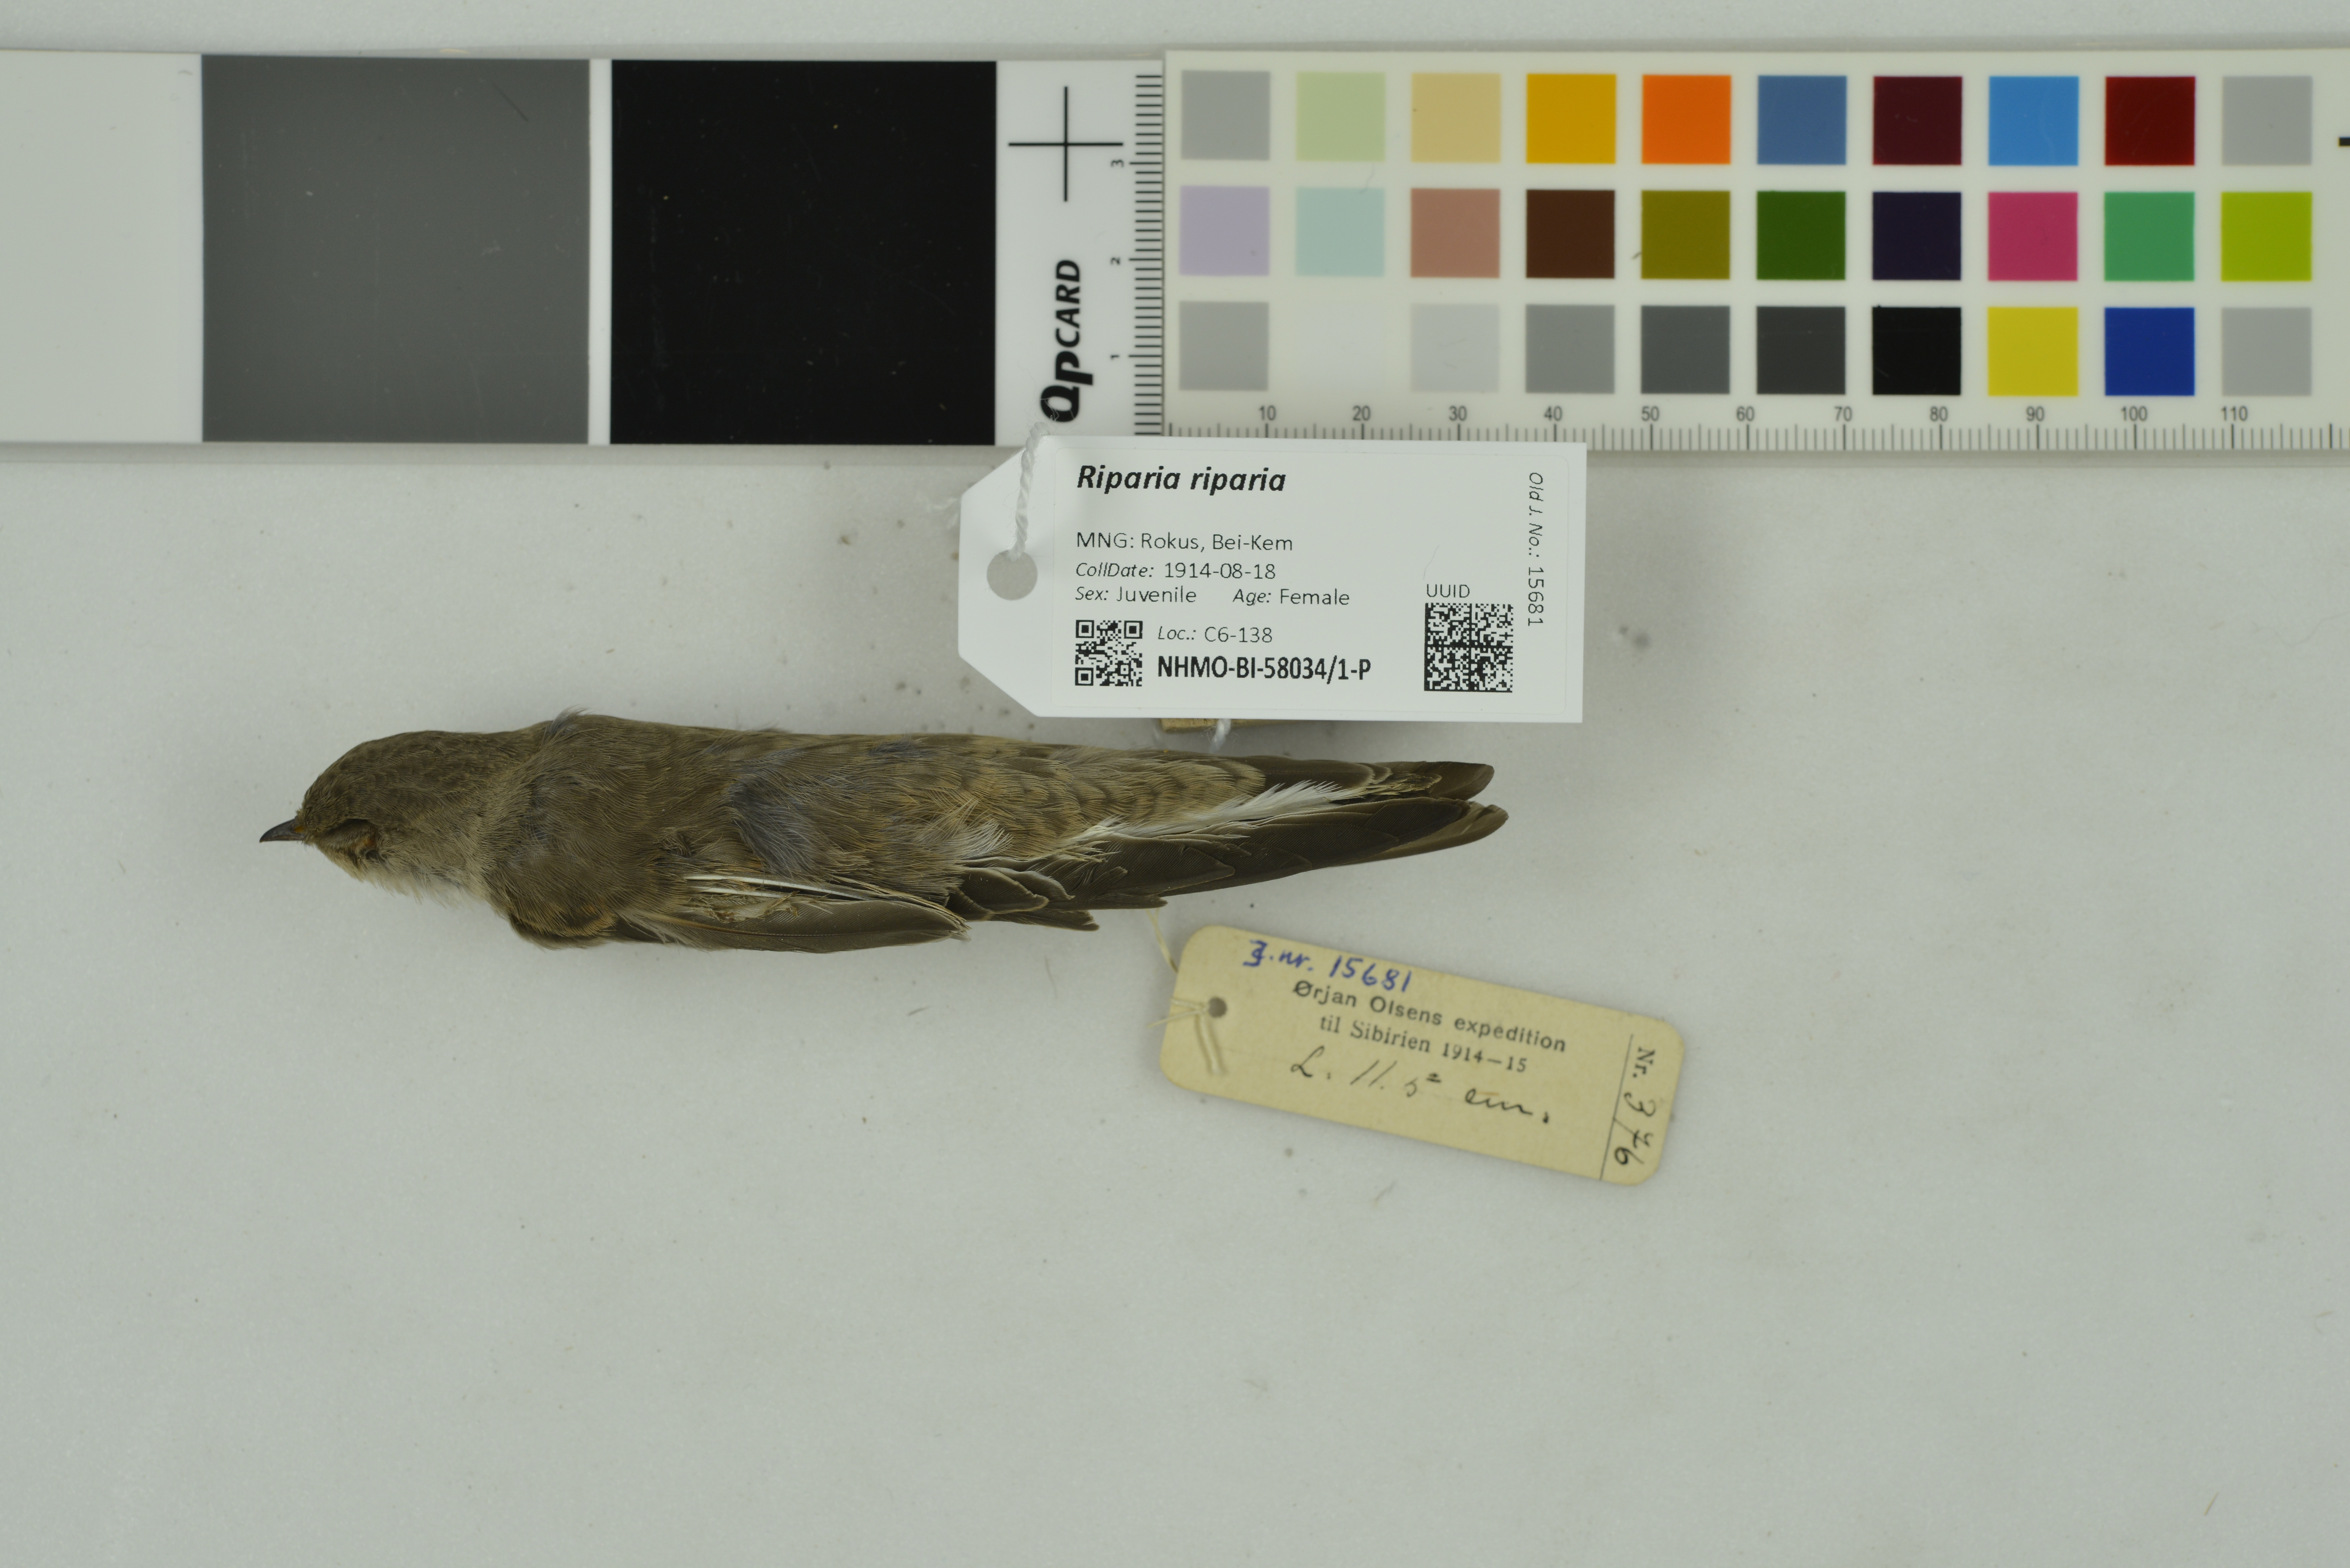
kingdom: Animalia
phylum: Chordata
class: Aves
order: Passeriformes
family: Hirundinidae
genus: Riparia
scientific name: Riparia riparia
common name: Sand martin
